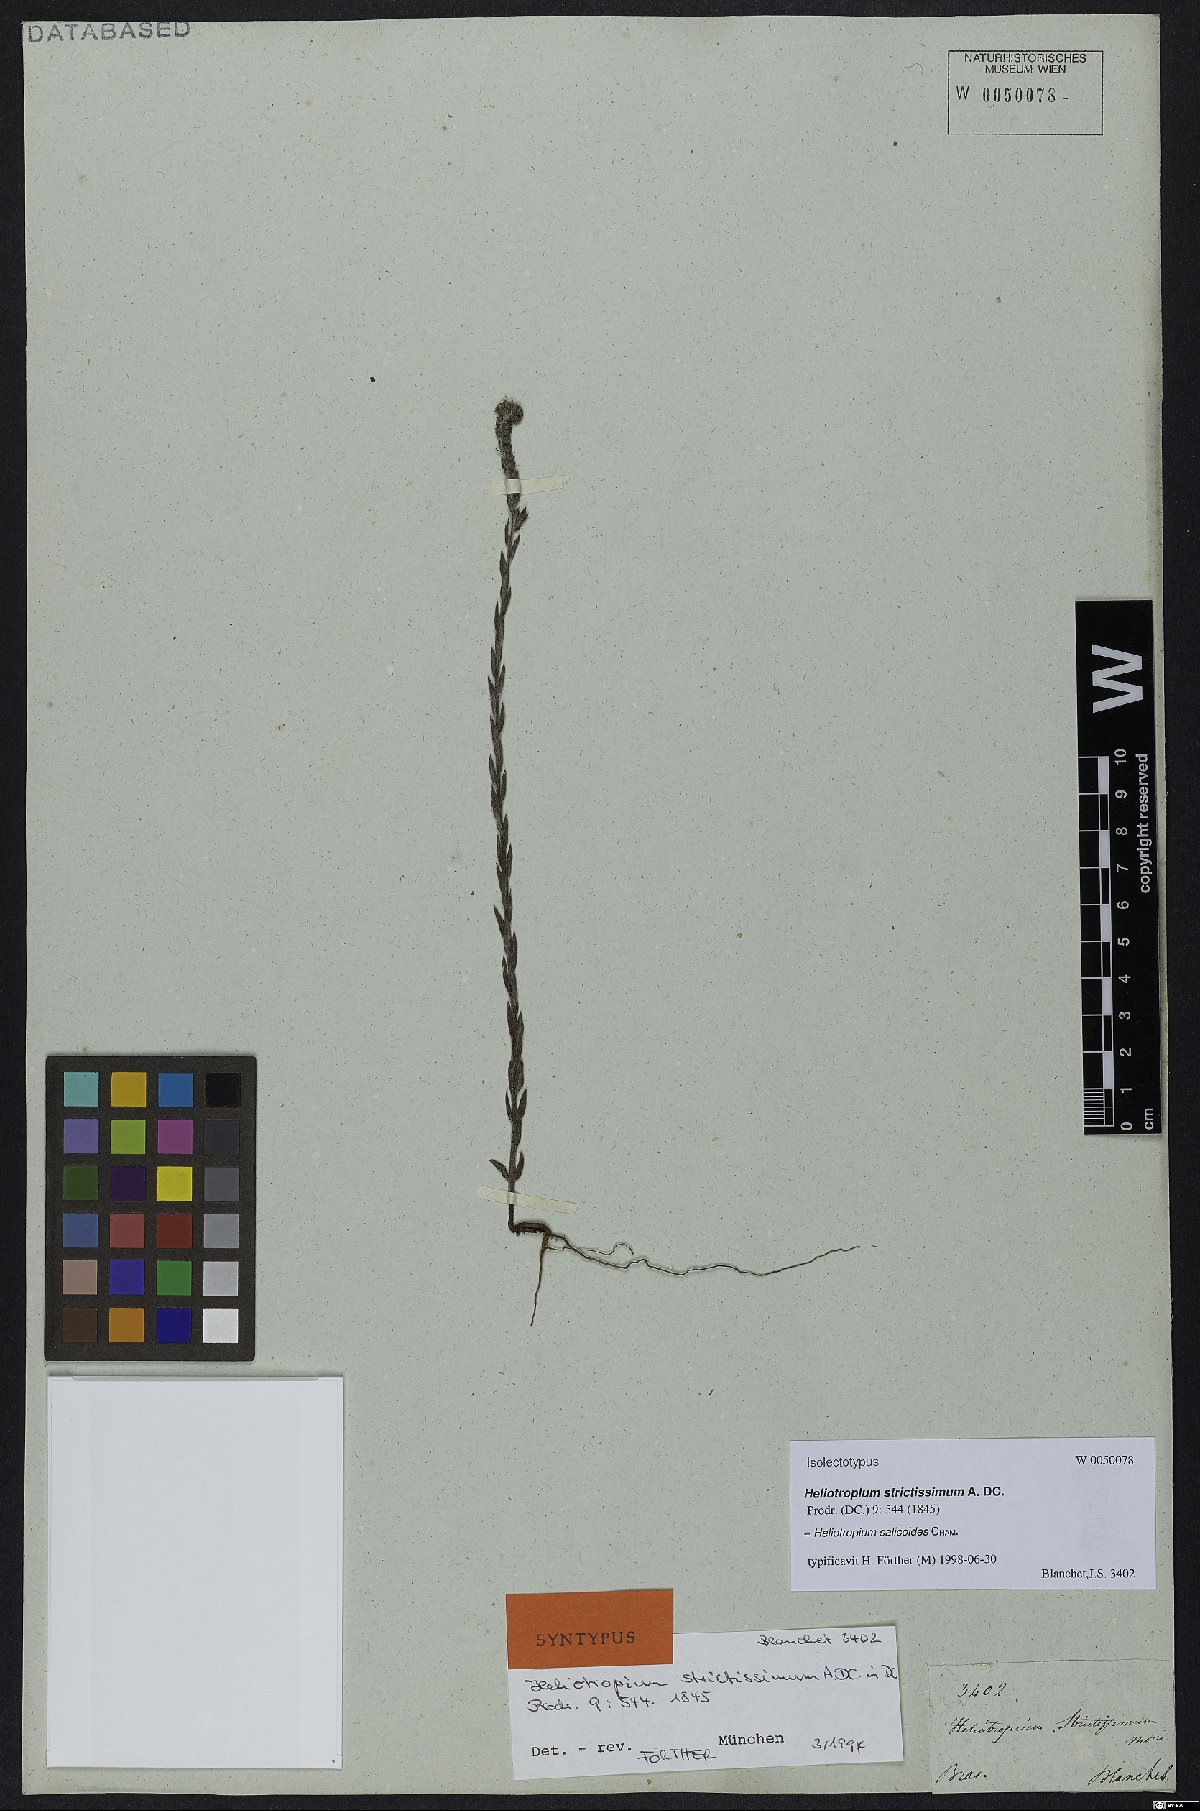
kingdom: Plantae
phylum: Tracheophyta
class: Magnoliopsida
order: Boraginales
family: Heliotropiaceae
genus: Euploca
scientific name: Euploca salicoides
